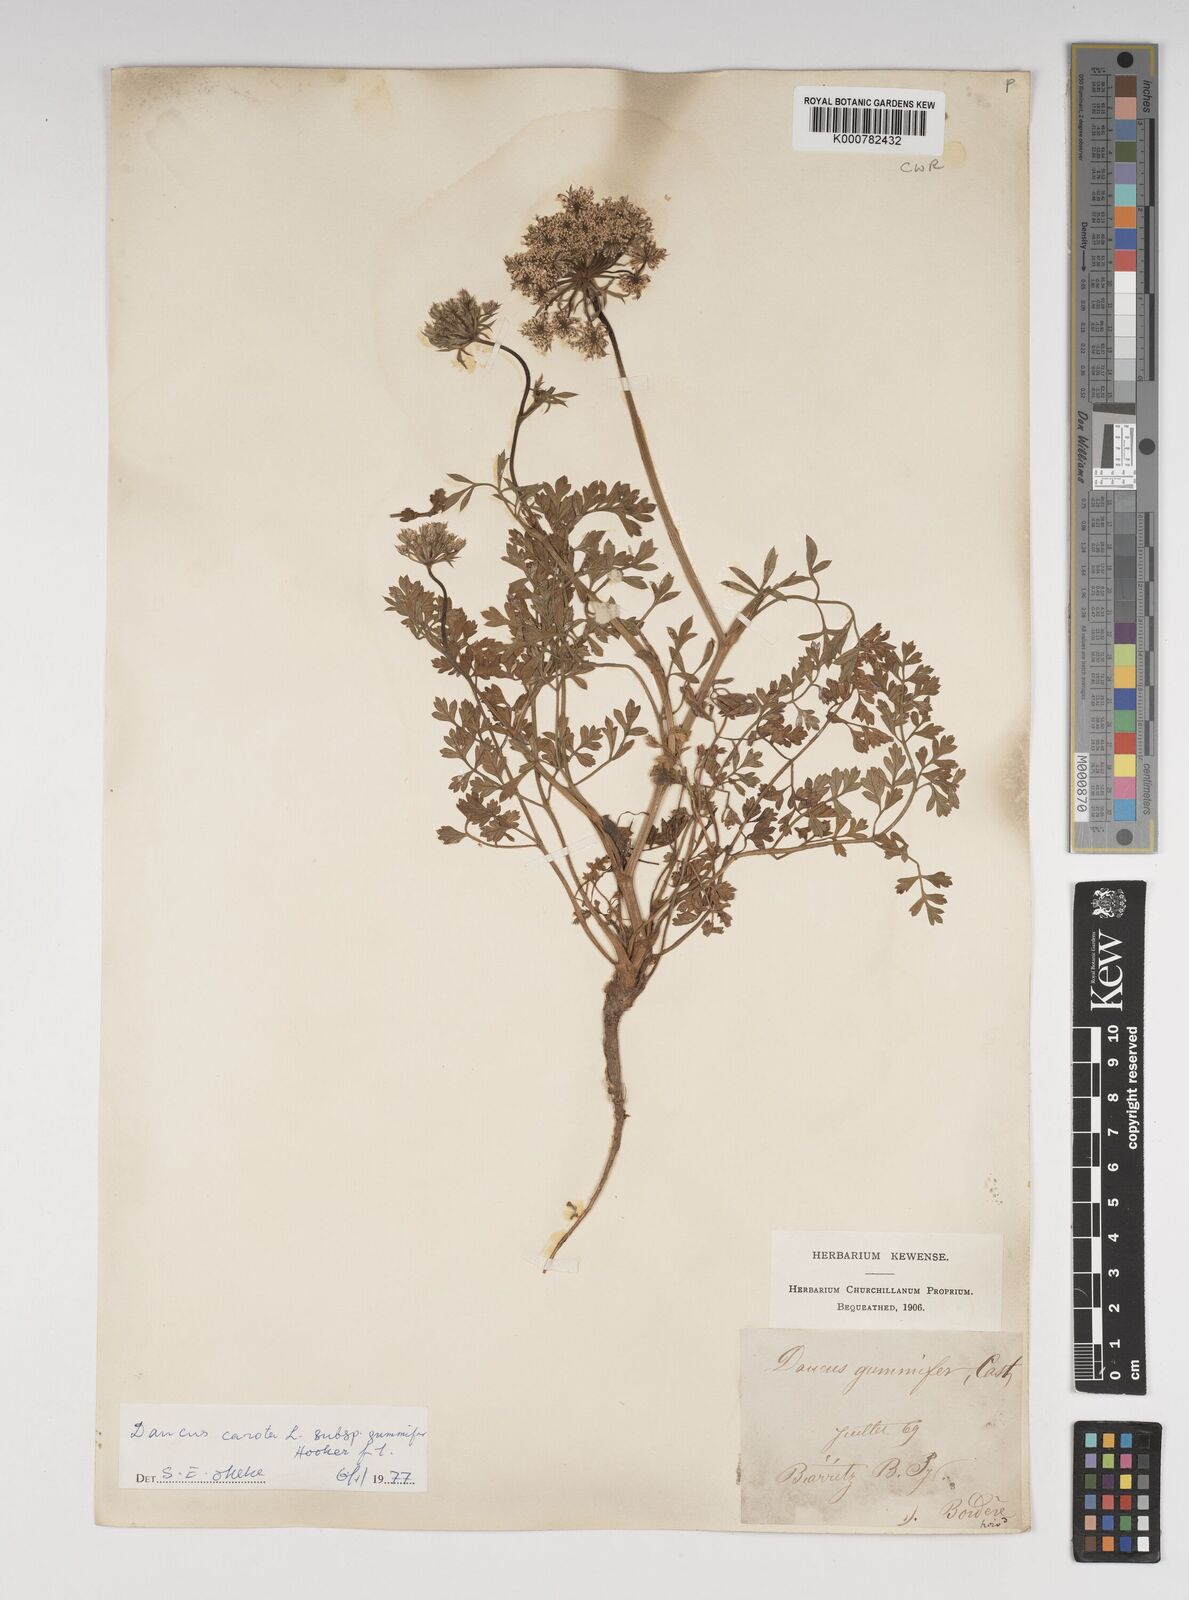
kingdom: Plantae
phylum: Tracheophyta
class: Magnoliopsida
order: Apiales
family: Apiaceae
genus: Daucus
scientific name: Daucus carota
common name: Wild carrot
